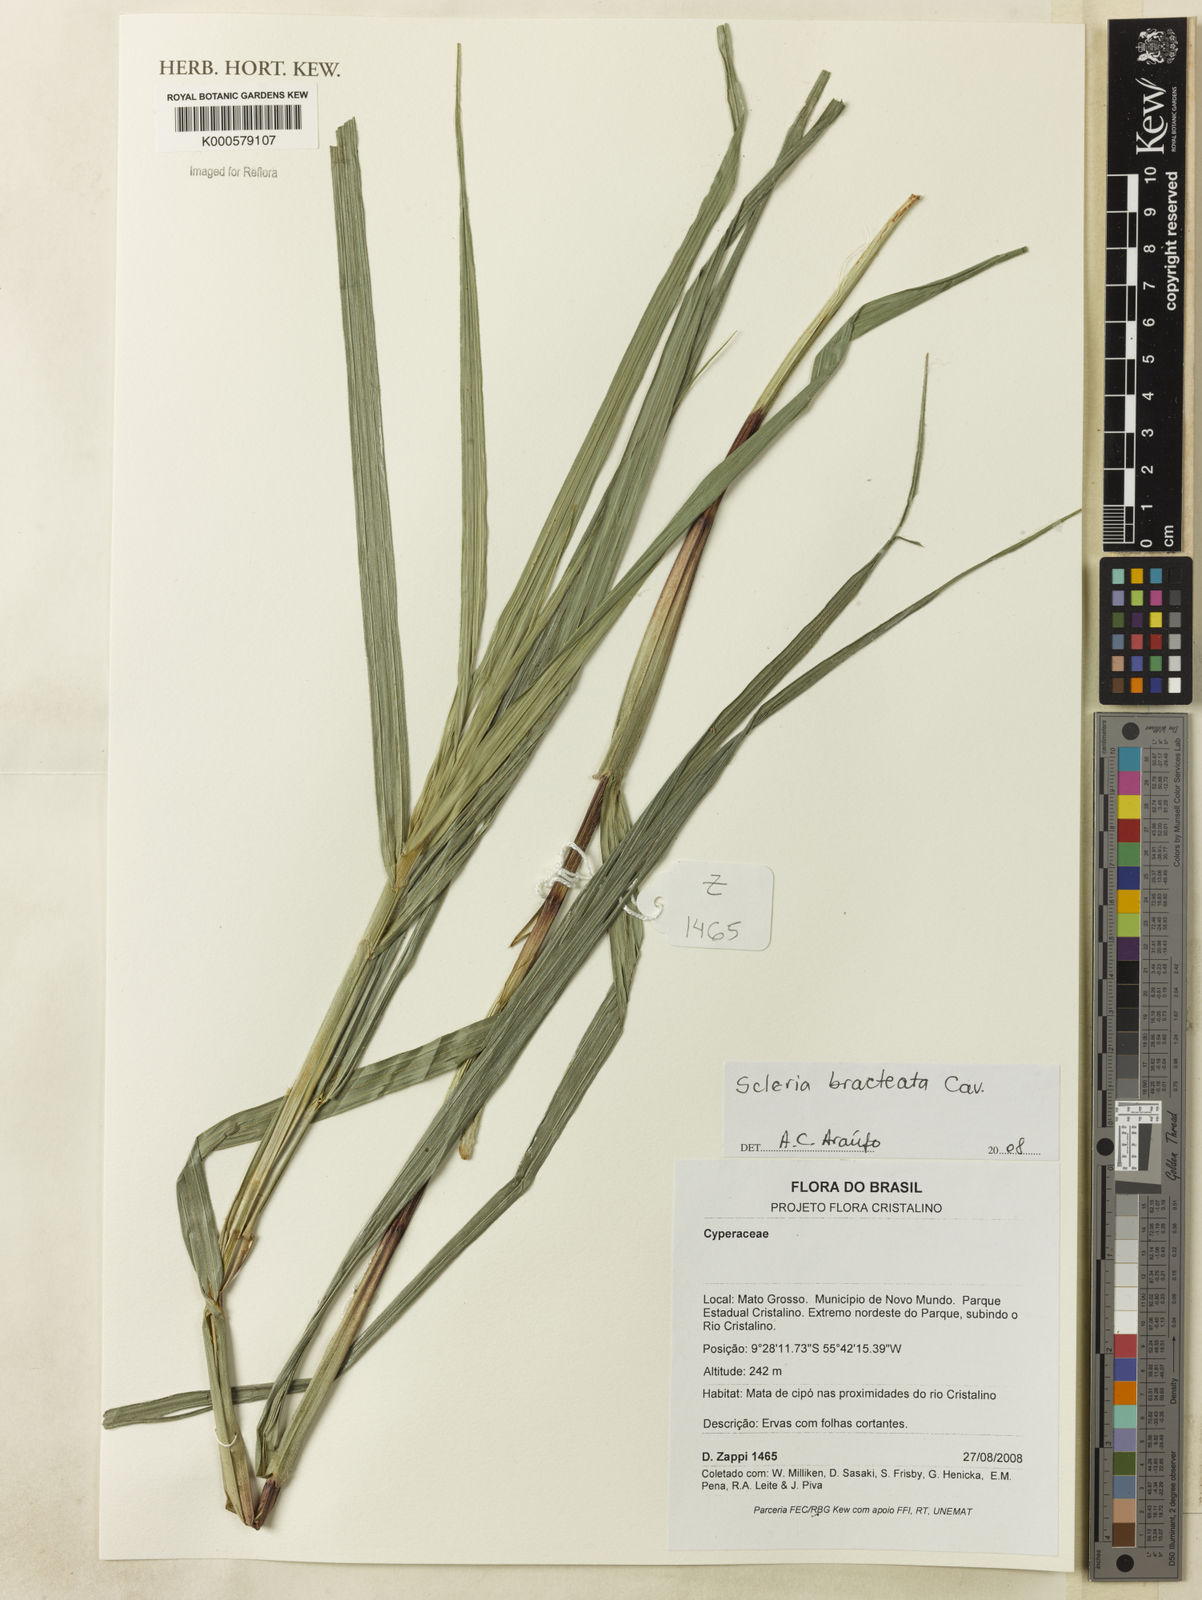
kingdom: Plantae
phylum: Tracheophyta
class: Liliopsida
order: Poales
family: Cyperaceae
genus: Scleria
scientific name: Scleria bracteata
